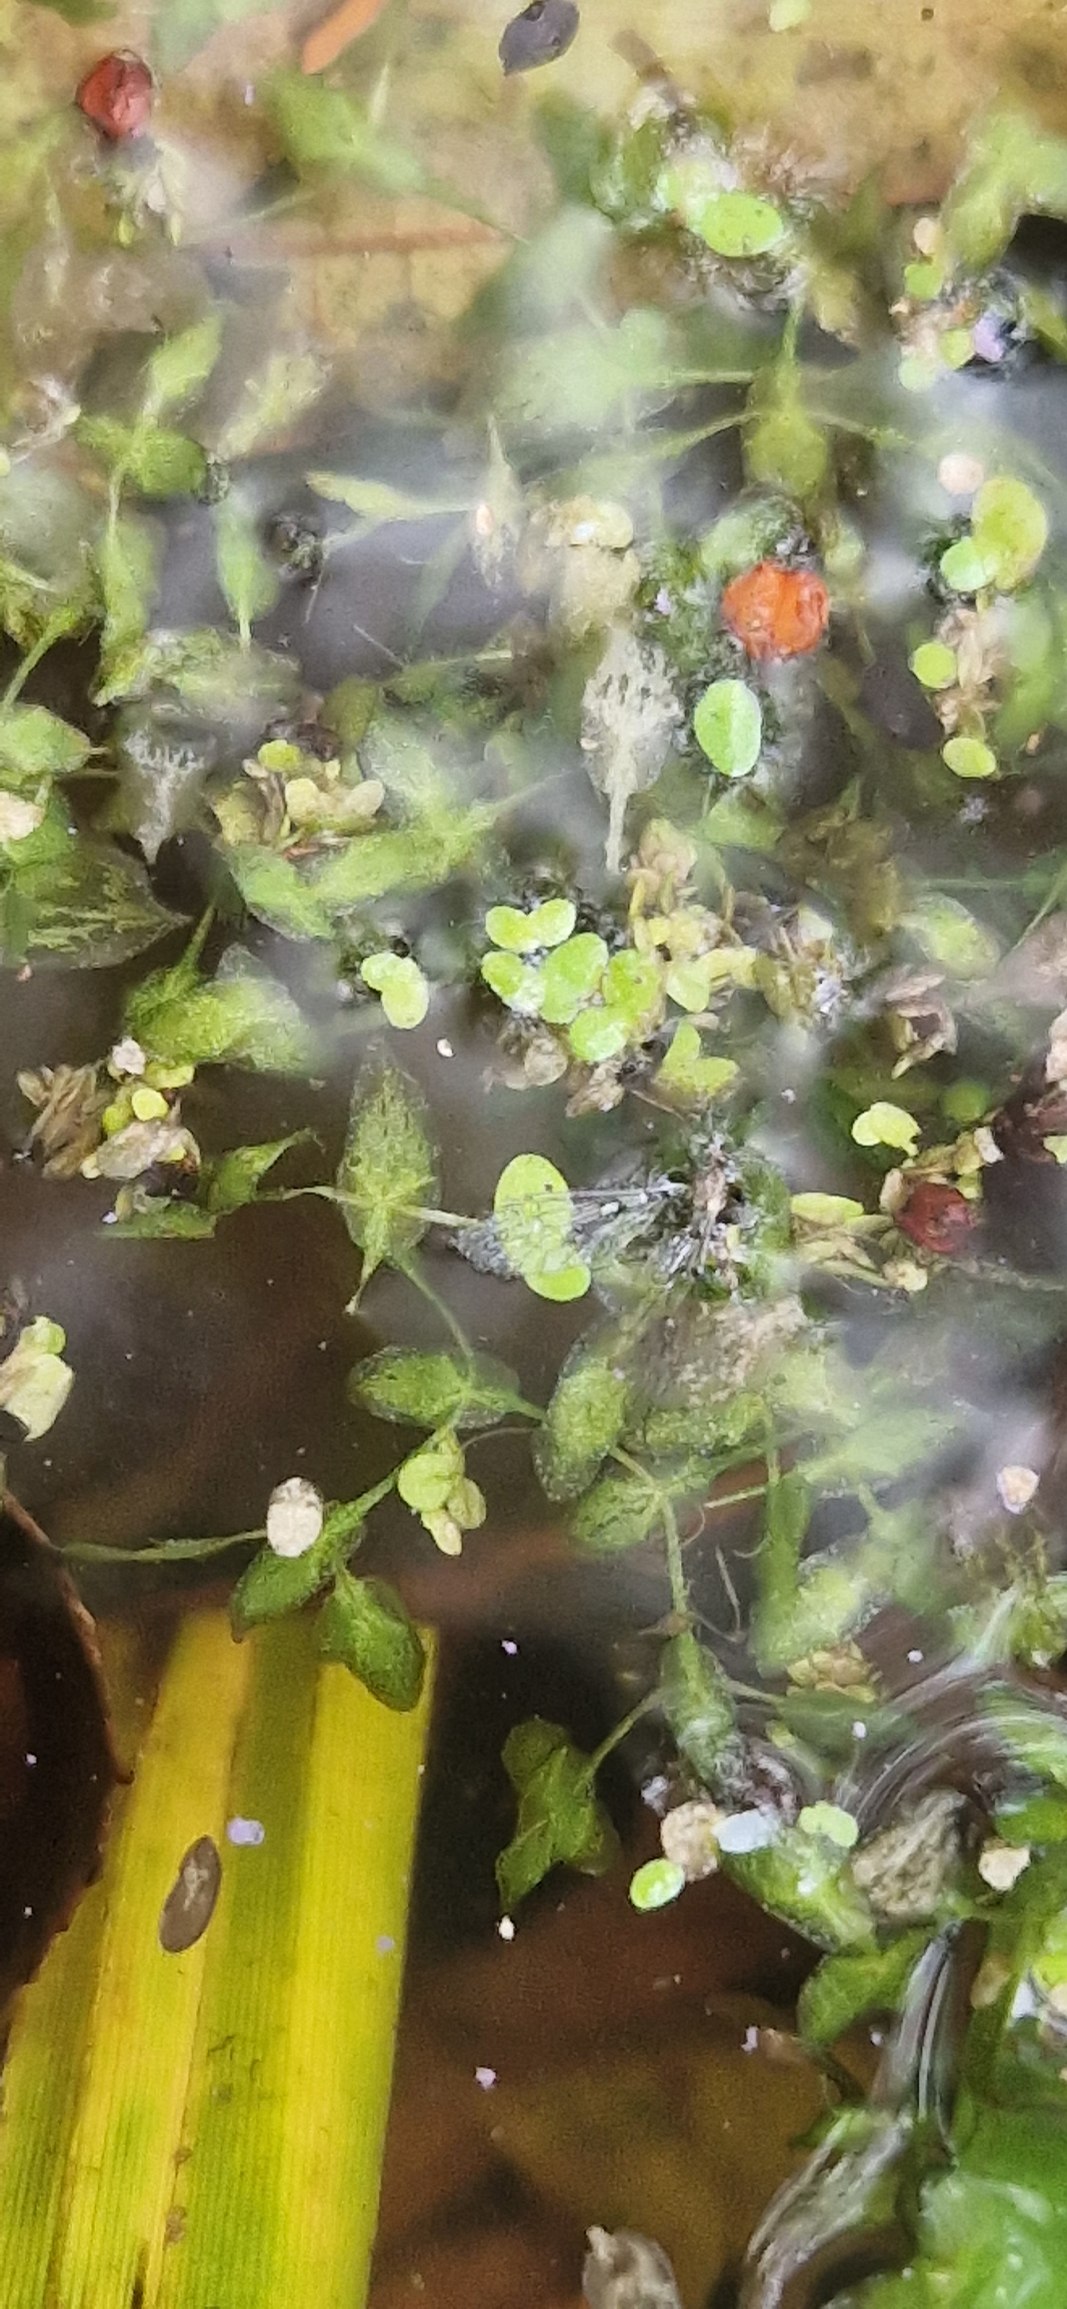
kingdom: Plantae
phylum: Tracheophyta
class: Liliopsida
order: Alismatales
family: Araceae
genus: Lemna
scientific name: Lemna trisulca
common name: Kors-andemad
